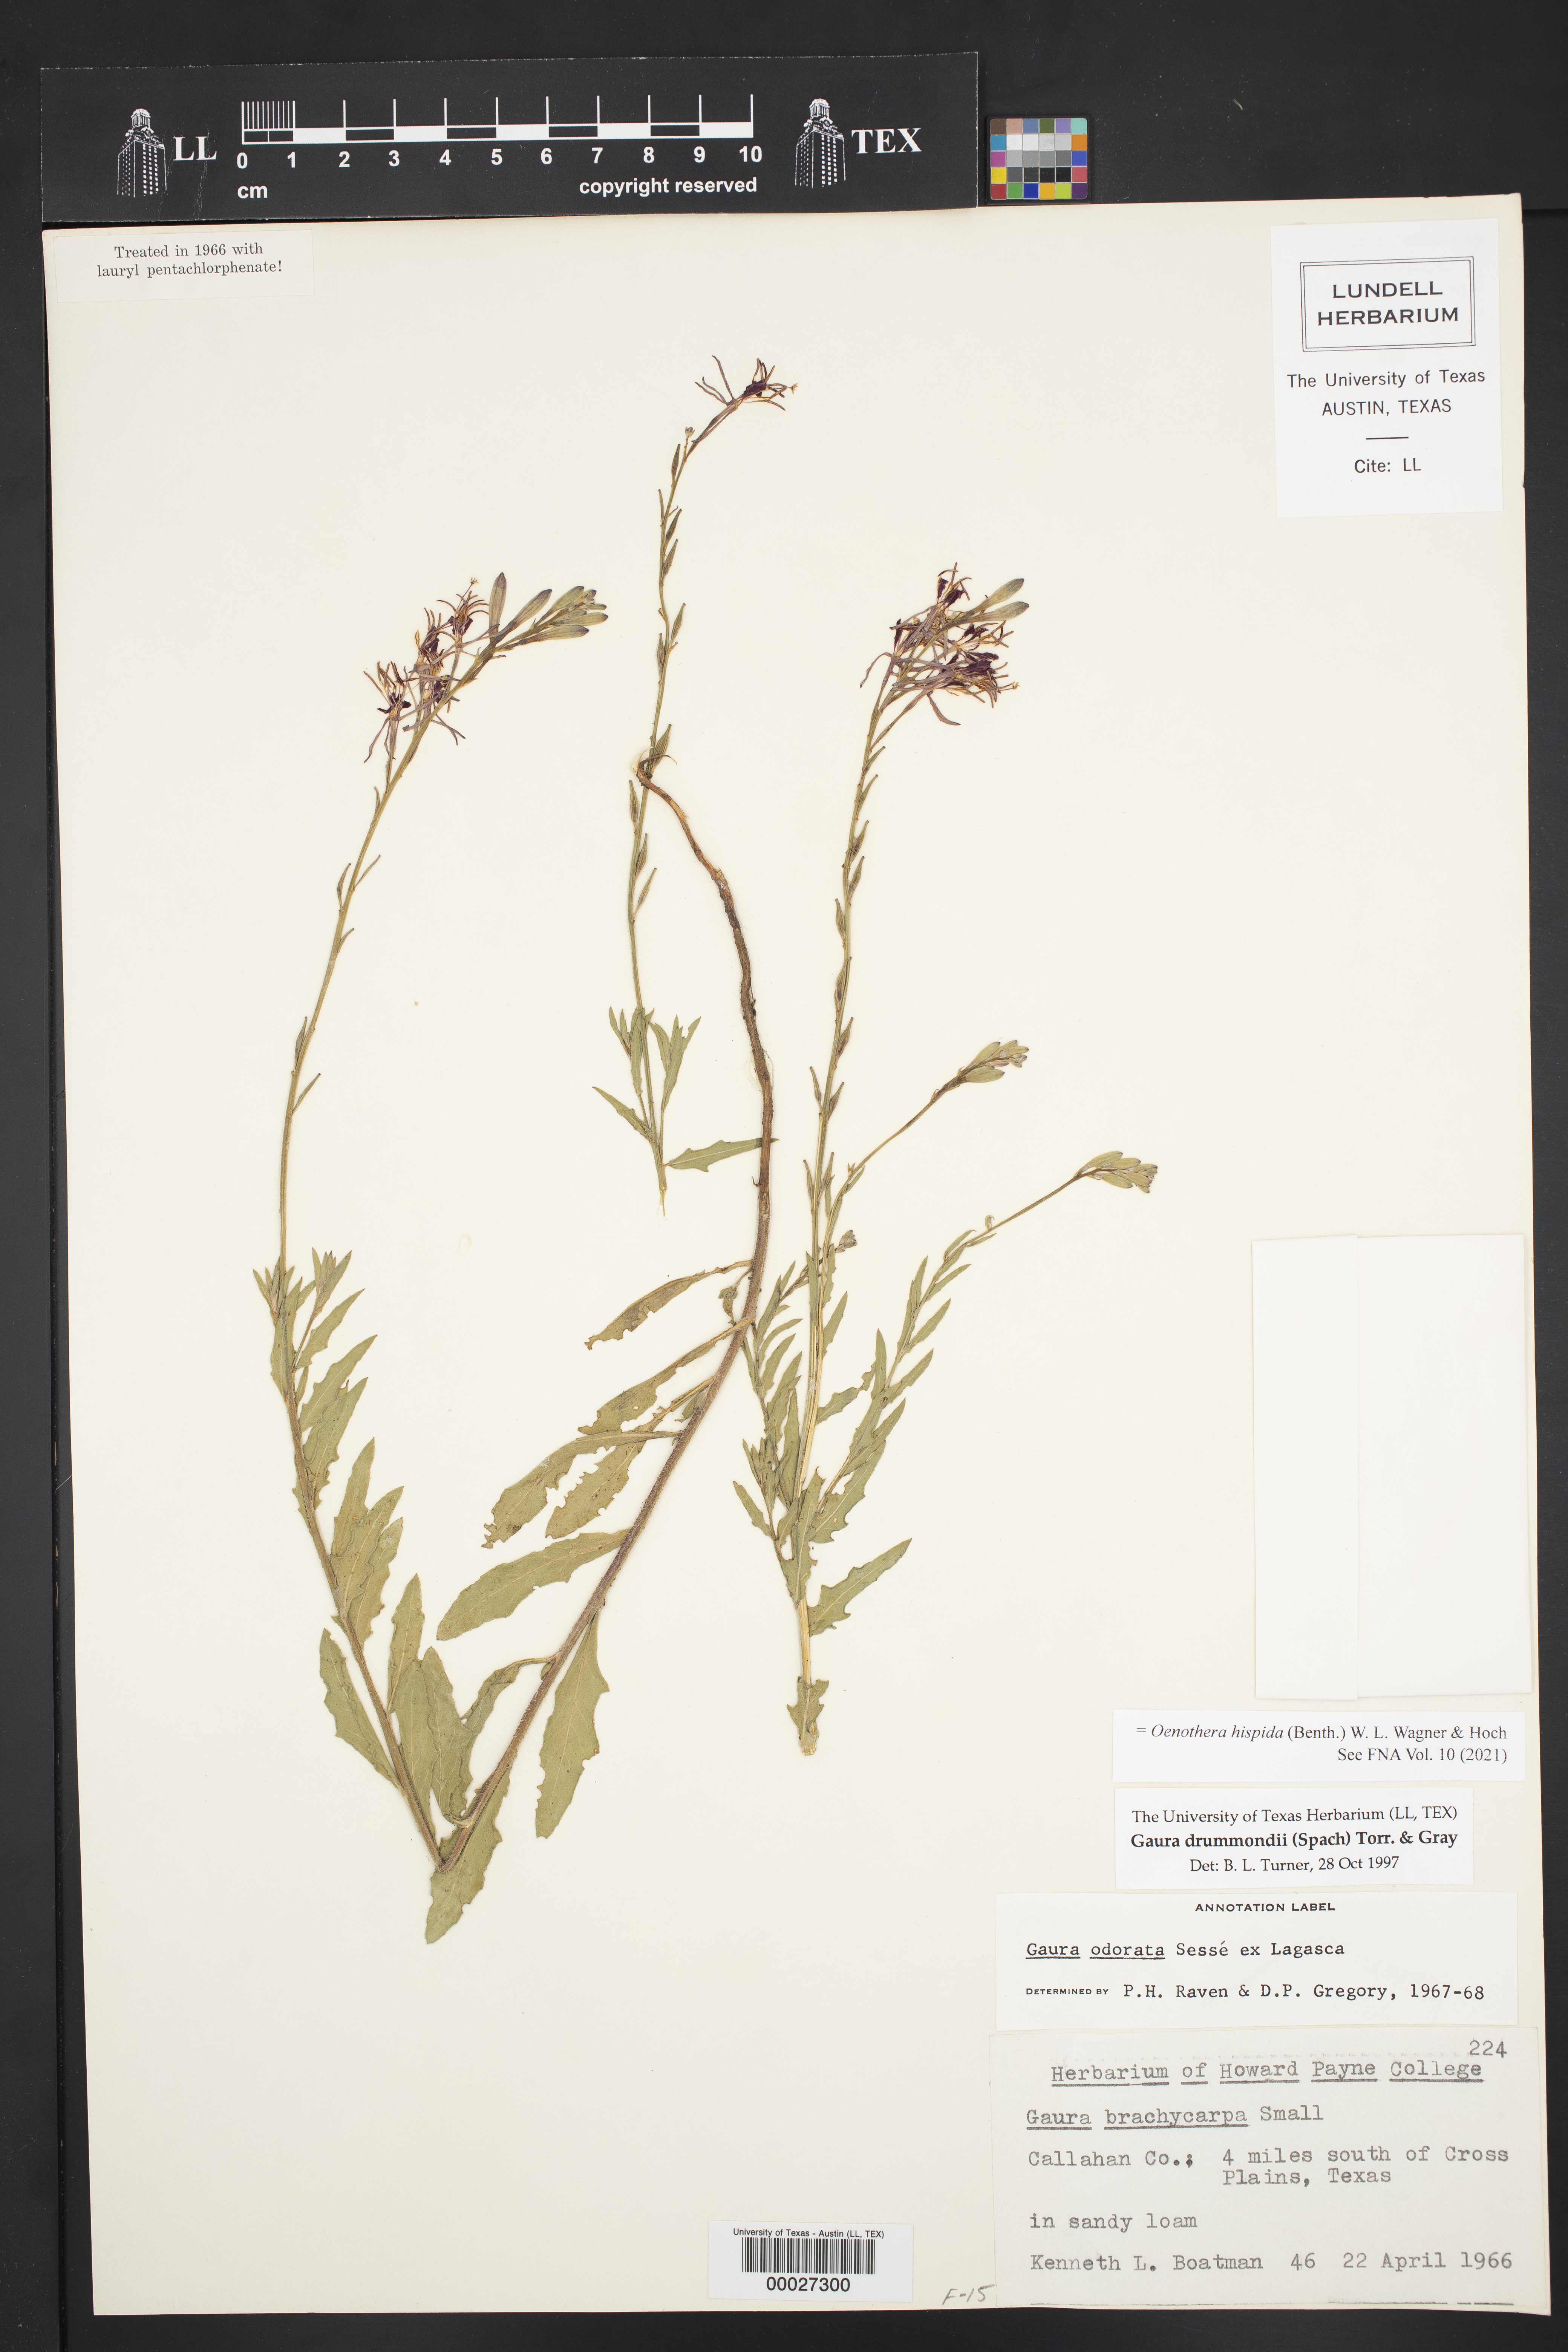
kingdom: Plantae
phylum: Tracheophyta
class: Magnoliopsida
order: Myrtales
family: Onagraceae
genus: Oenothera
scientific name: Oenothera hispida
